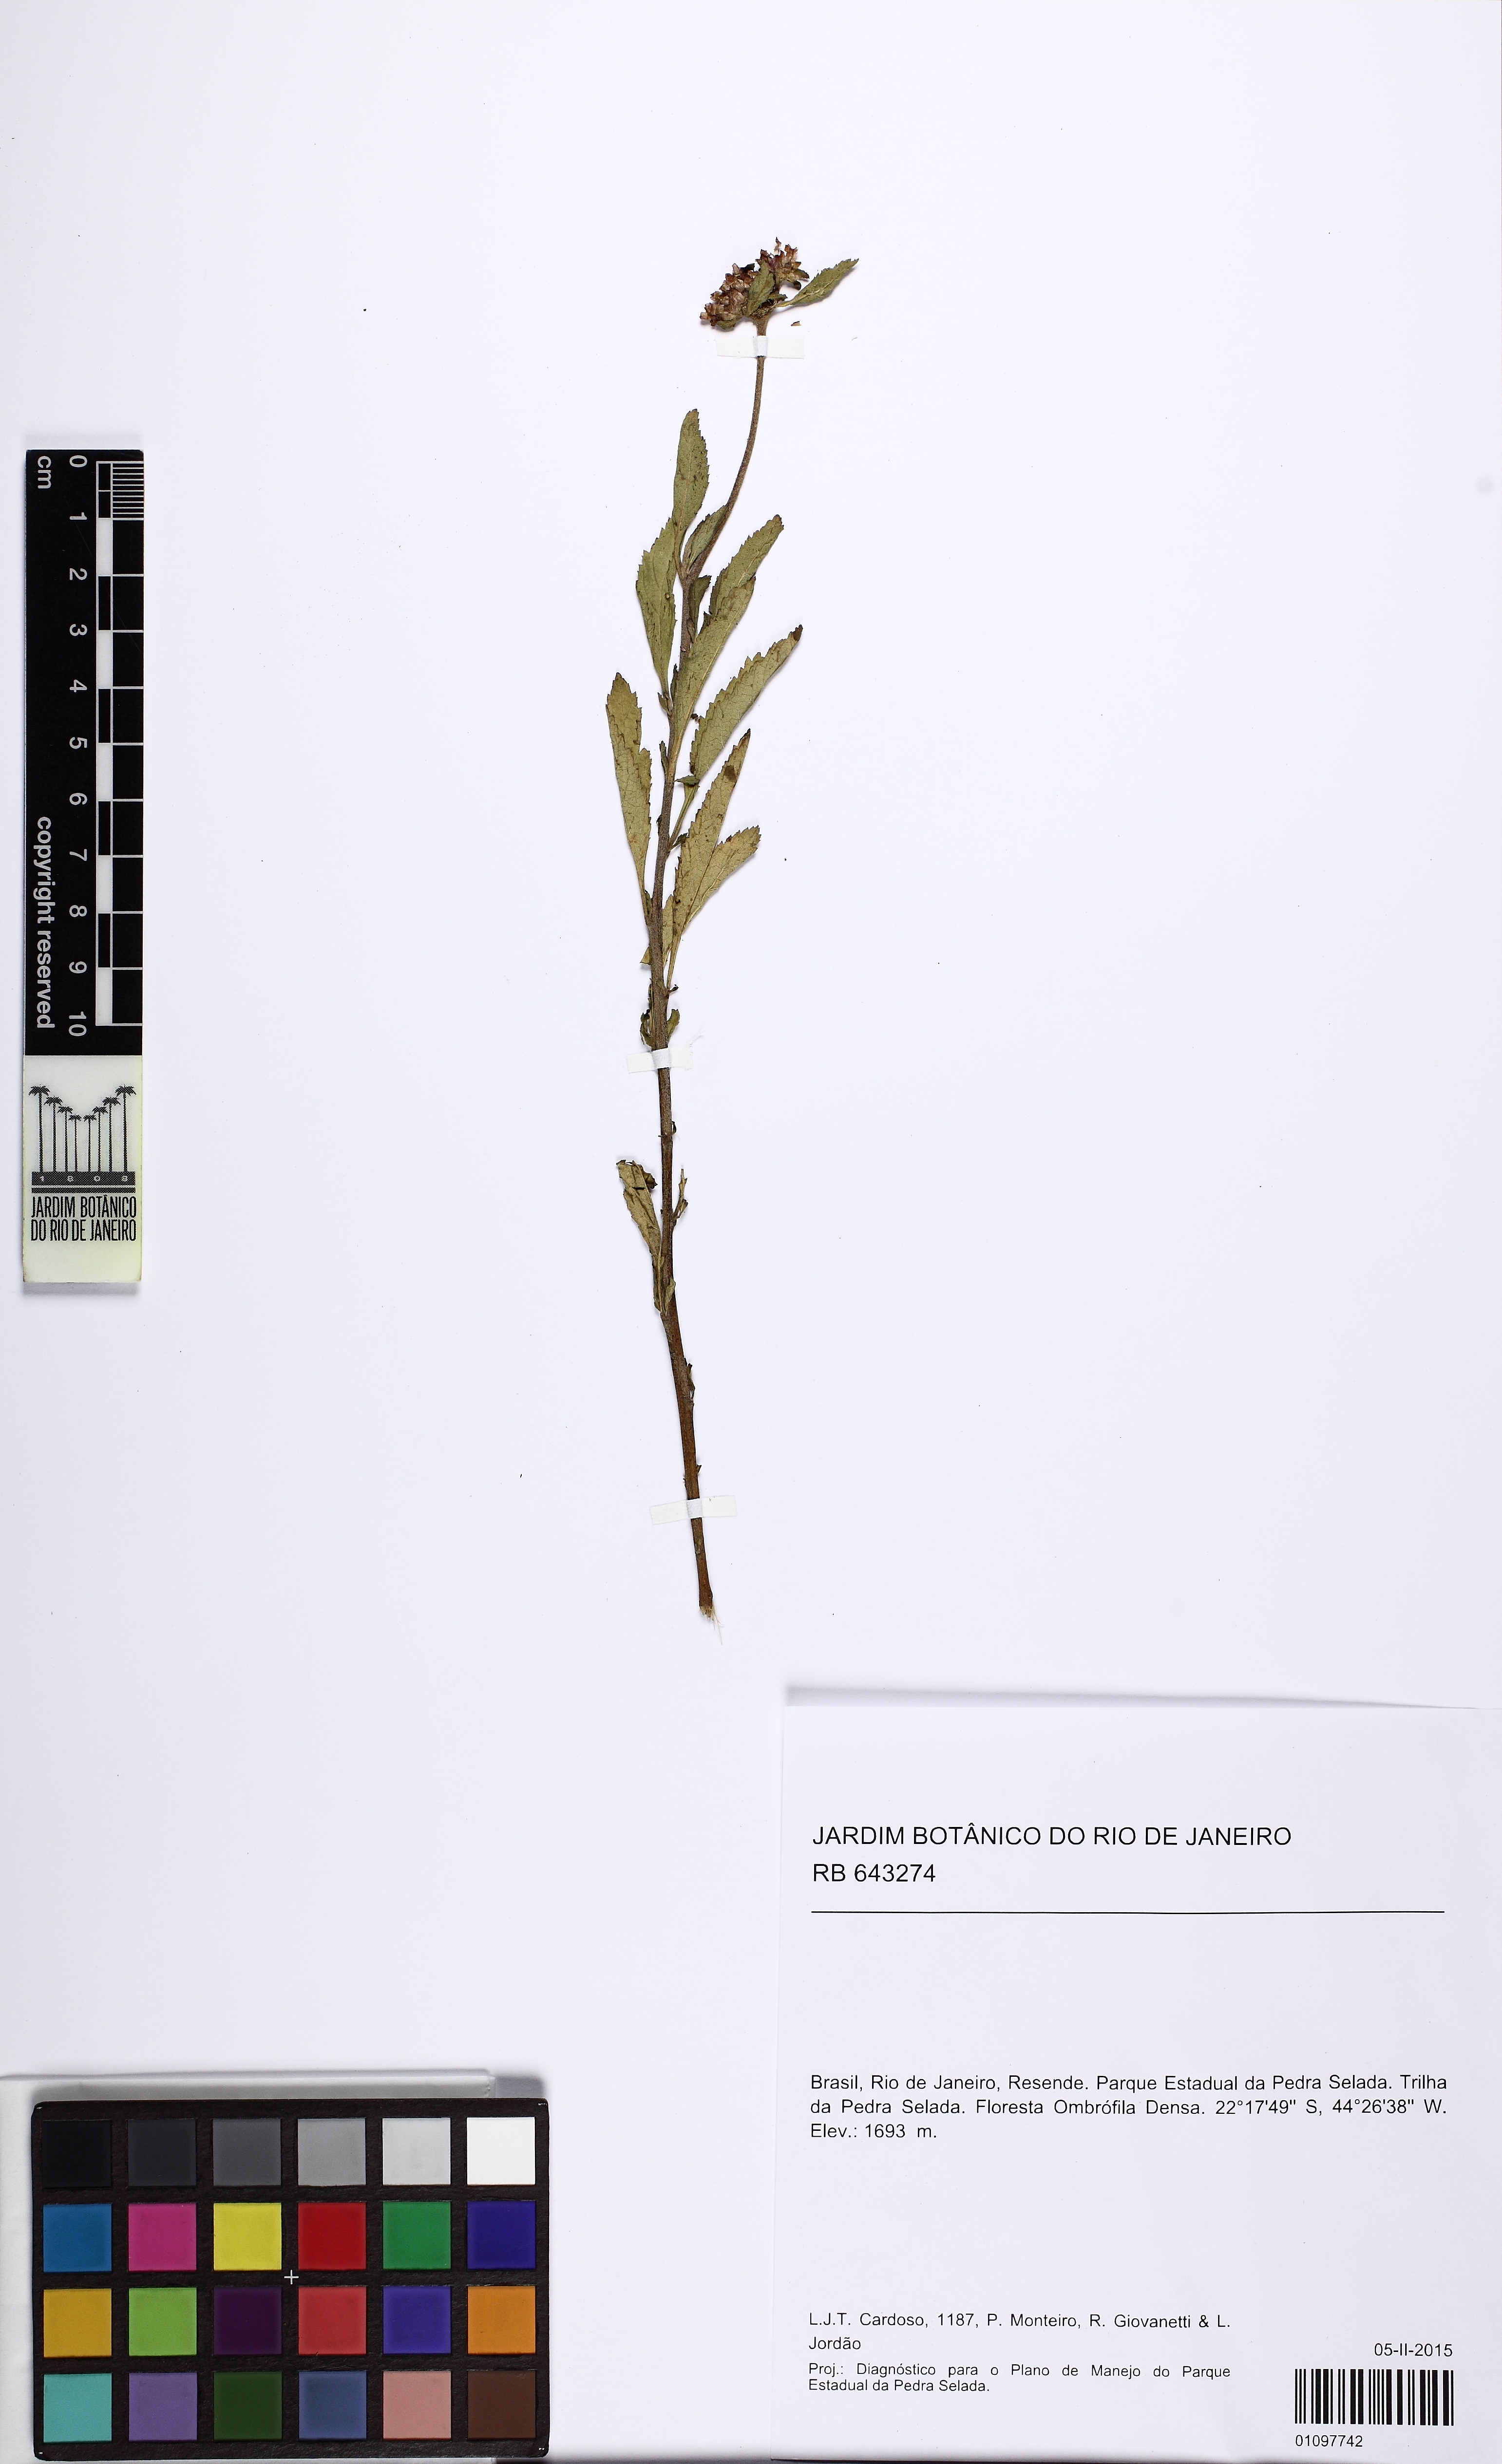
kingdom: Plantae
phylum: Tracheophyta
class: Magnoliopsida
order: Asterales
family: Asteraceae
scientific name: Asteraceae
